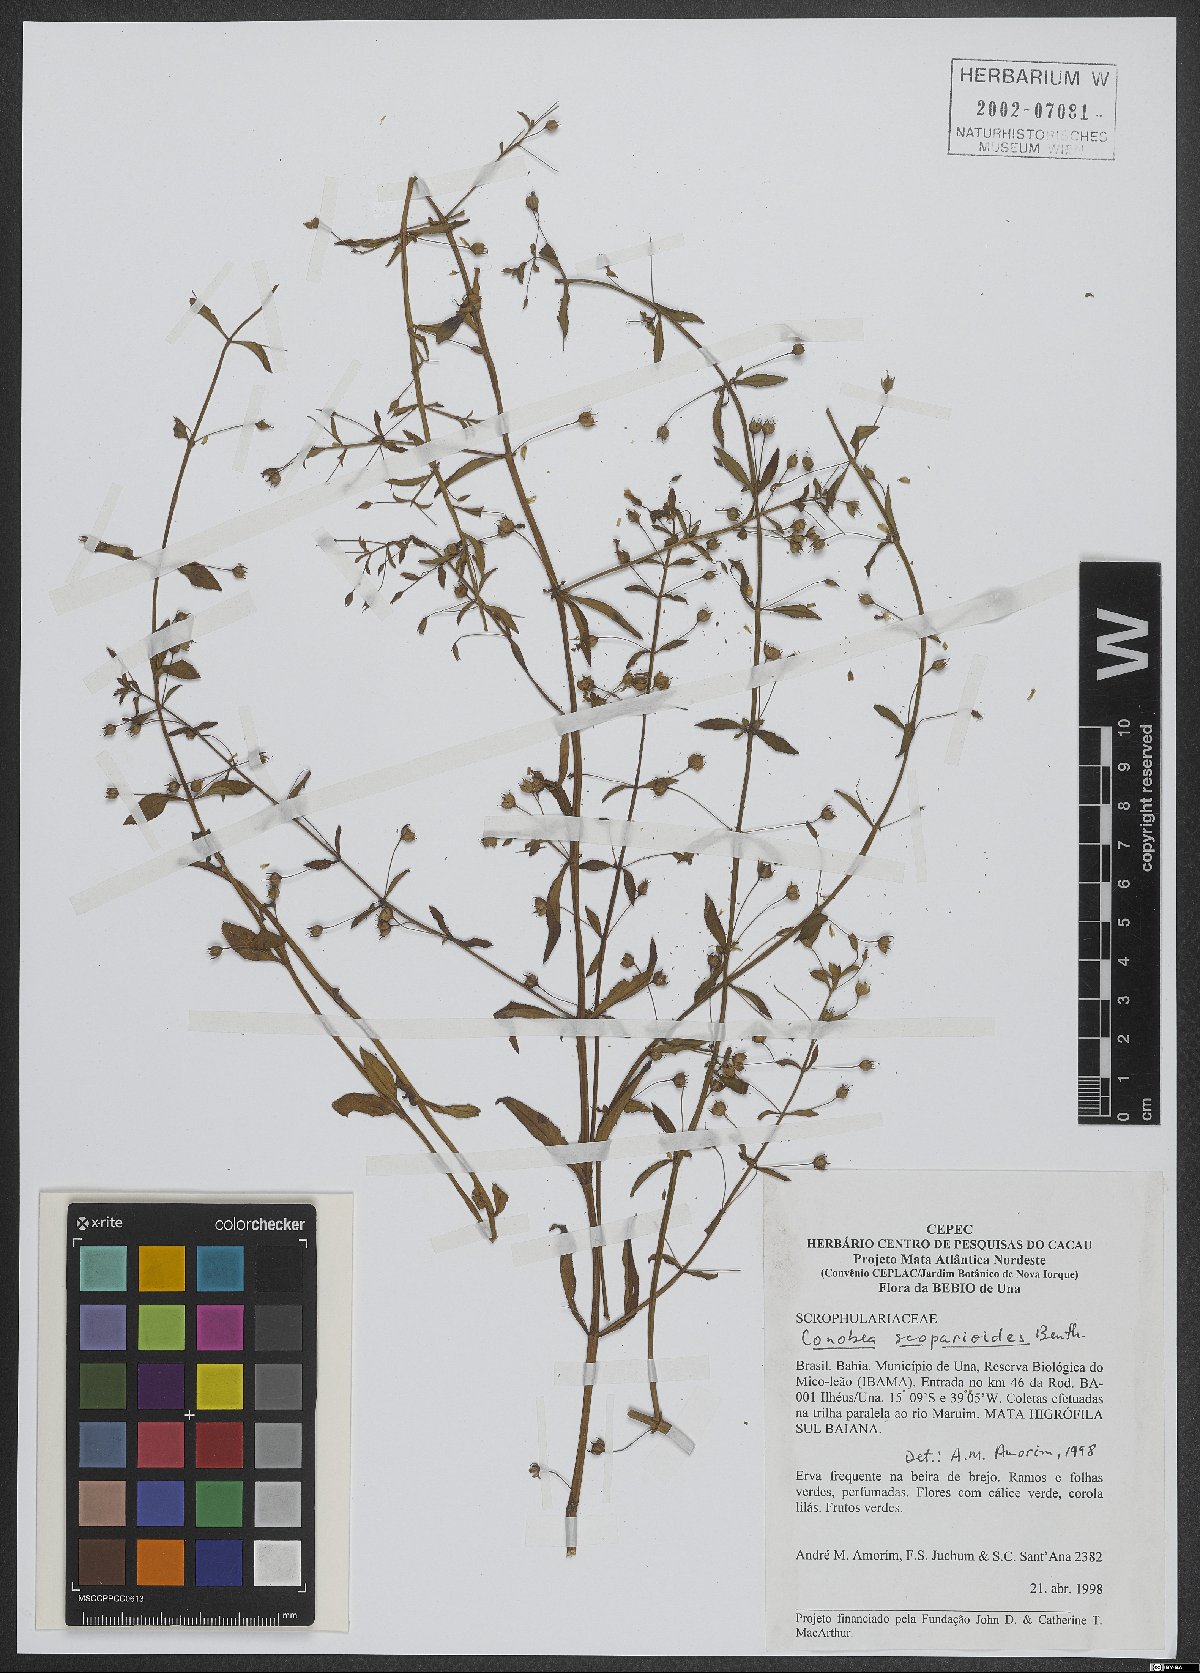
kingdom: Plantae
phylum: Tracheophyta
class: Magnoliopsida
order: Lamiales
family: Plantaginaceae
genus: Conobea
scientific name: Conobea scoparioides
